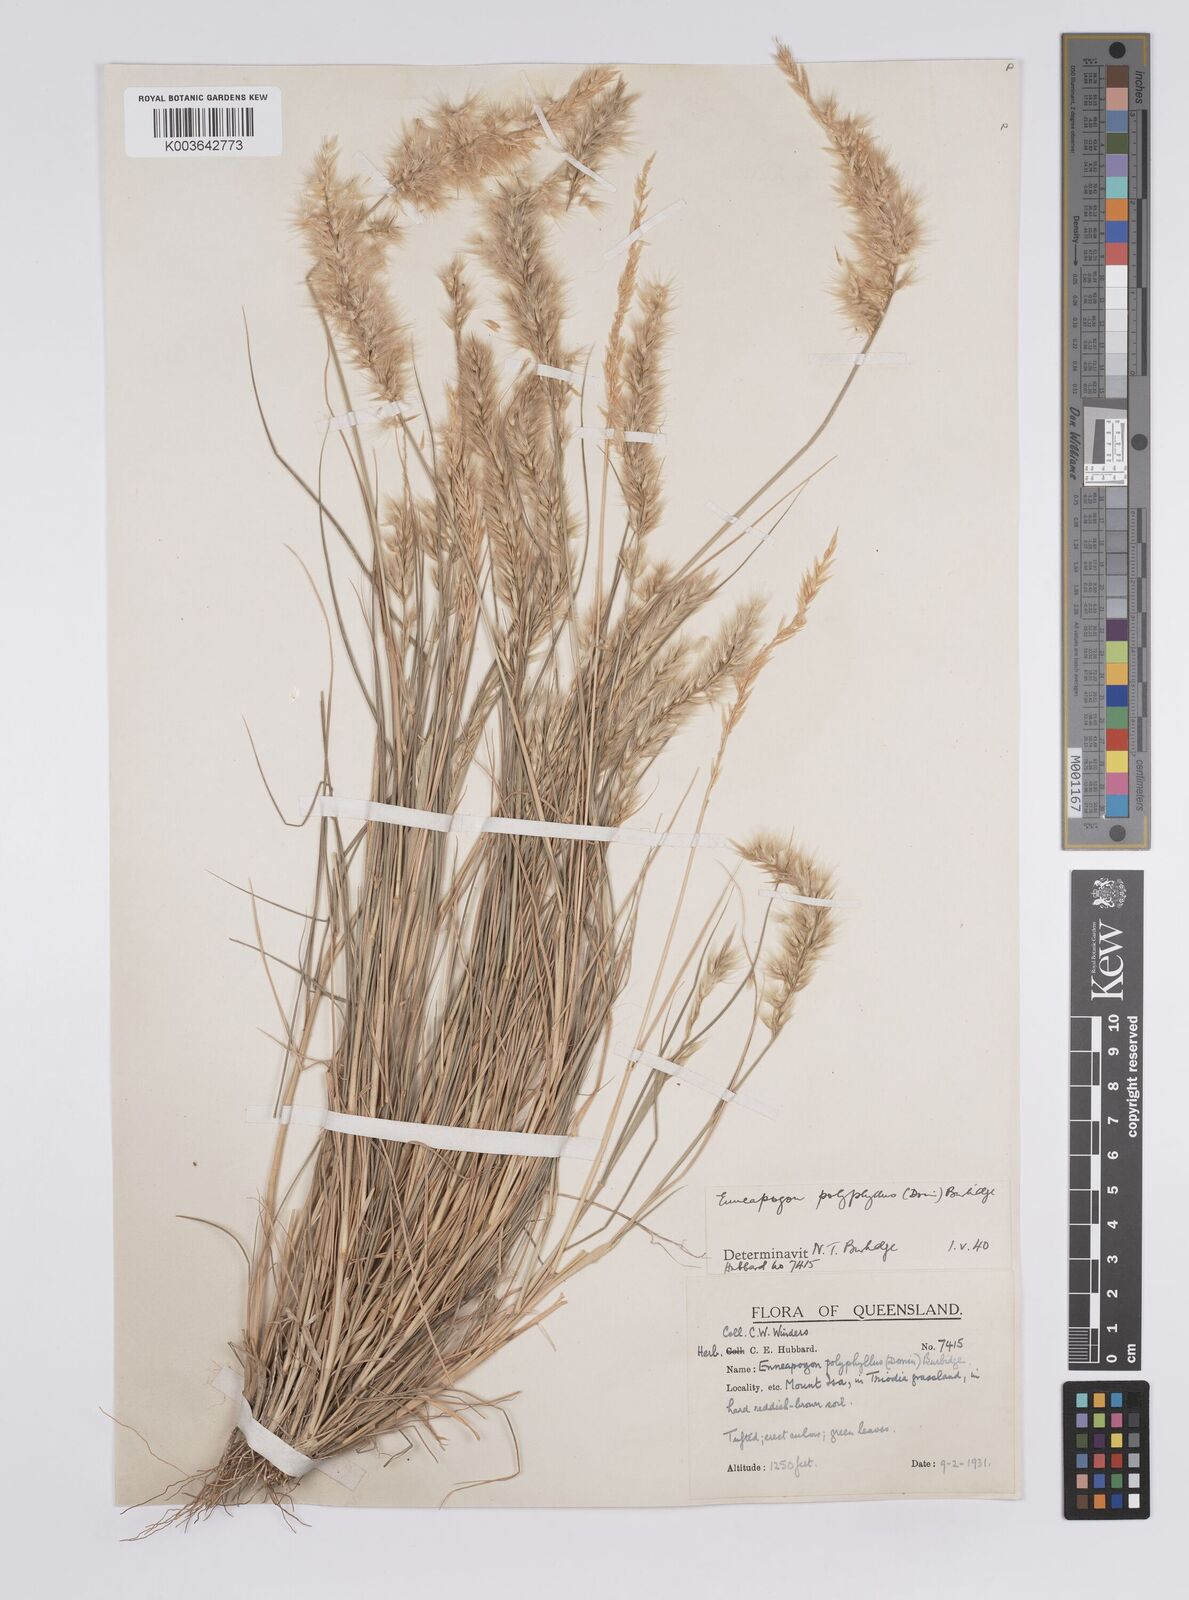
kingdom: Plantae
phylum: Tracheophyta
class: Liliopsida
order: Poales
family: Poaceae
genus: Enneapogon
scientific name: Enneapogon polyphyllus
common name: Leafy nineawn
